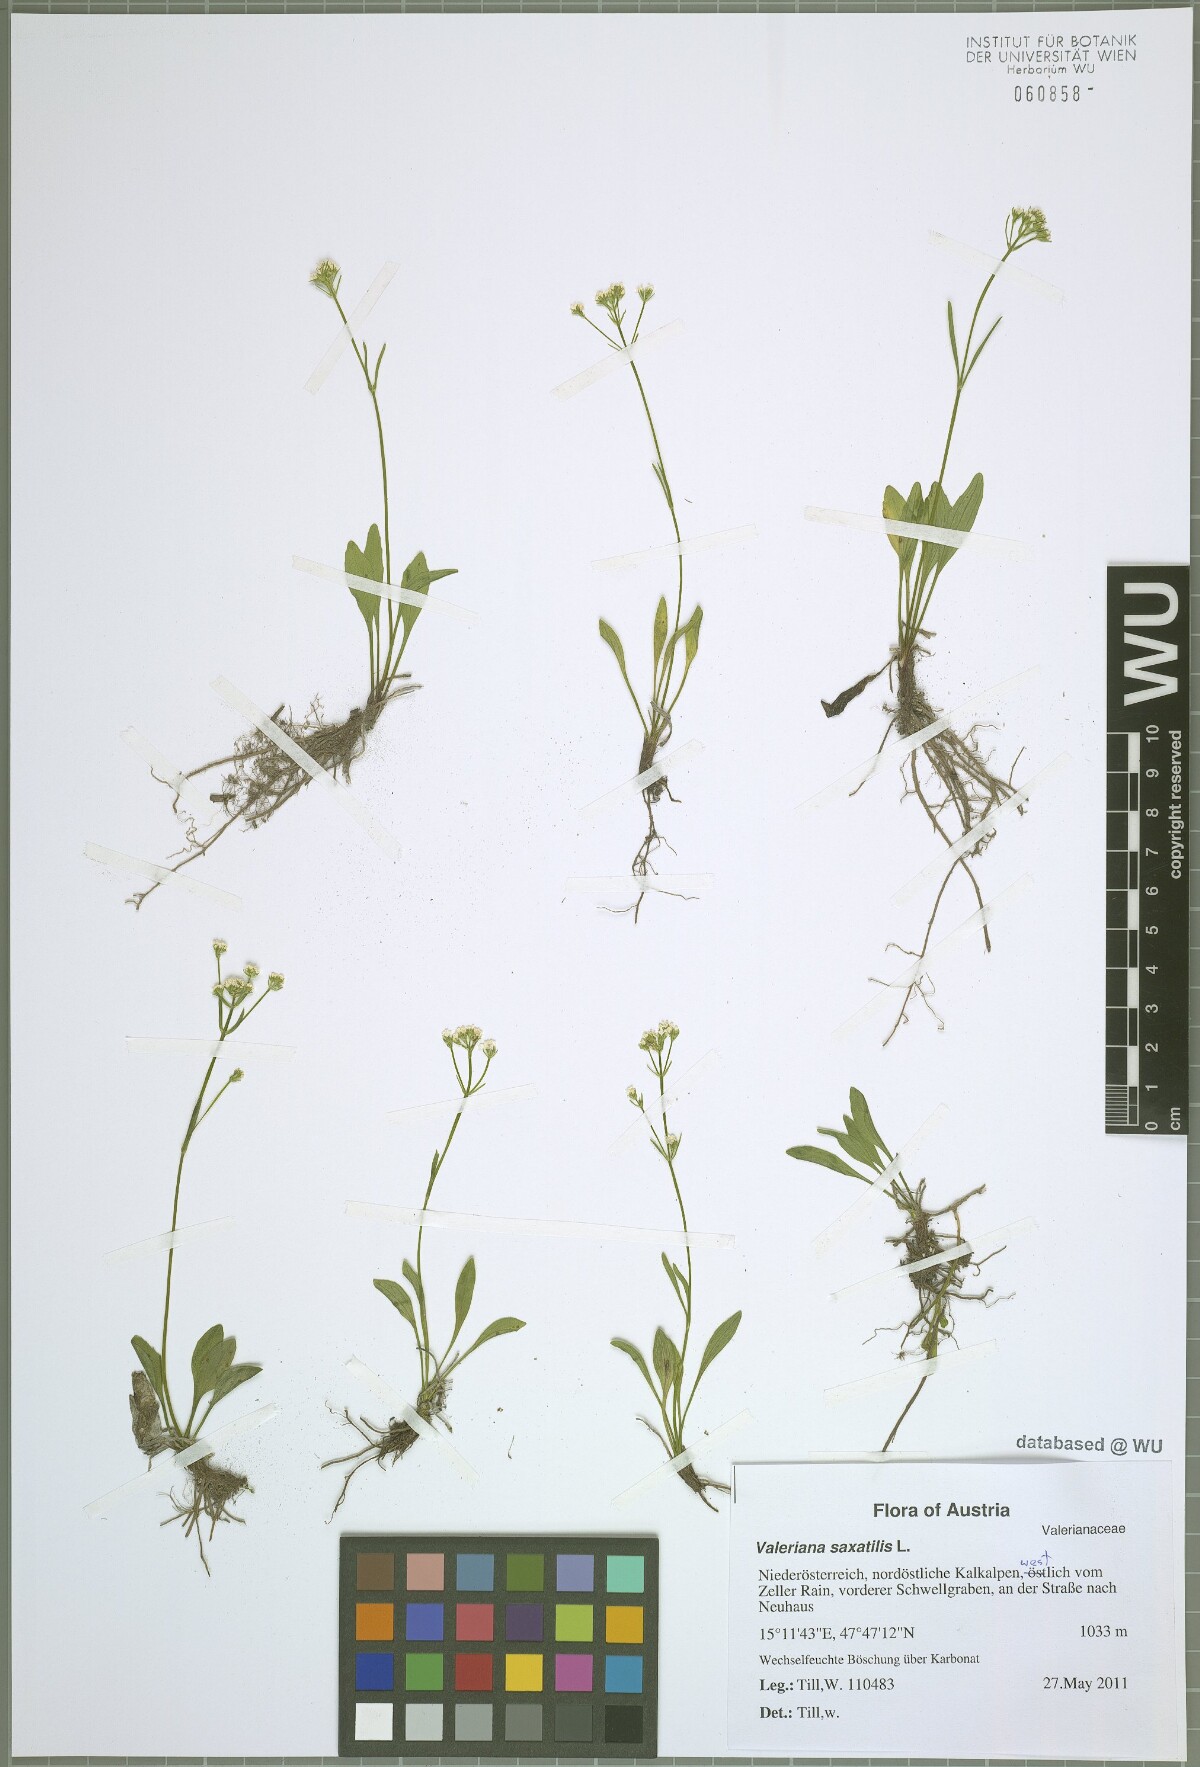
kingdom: Plantae
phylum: Tracheophyta
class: Magnoliopsida
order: Dipsacales
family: Caprifoliaceae
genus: Valeriana
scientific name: Valeriana saxatilis
